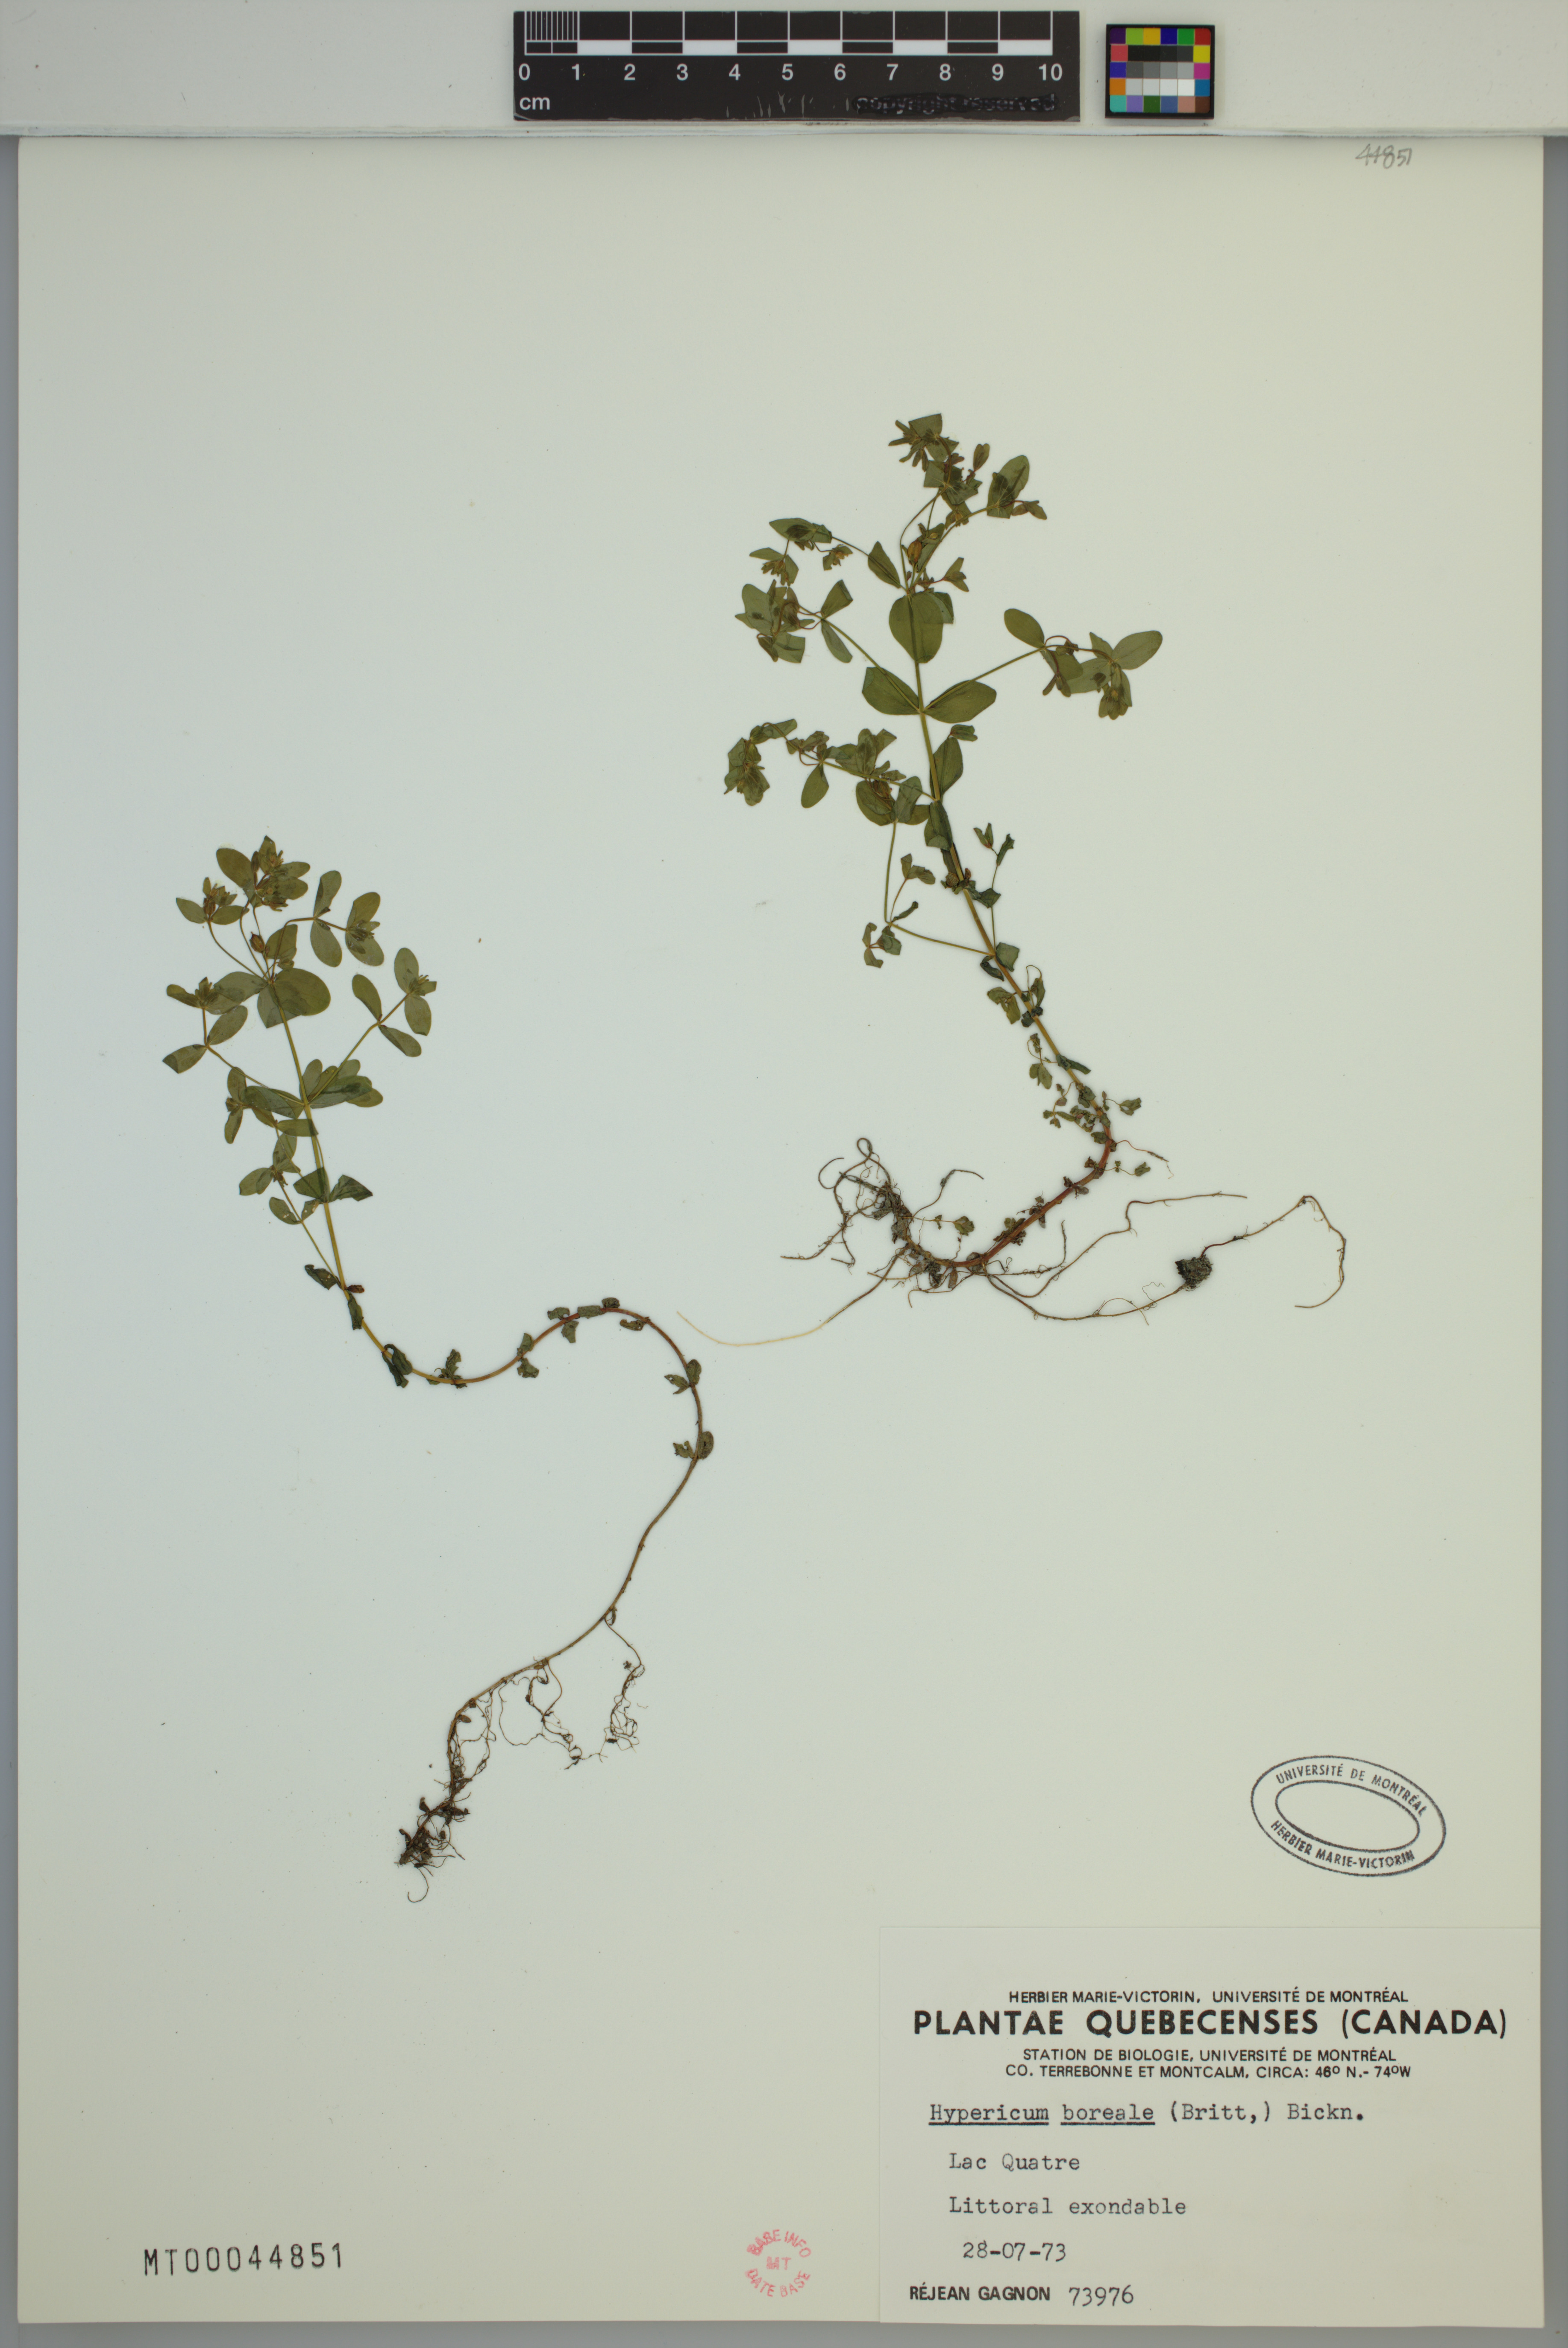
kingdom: Plantae
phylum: Tracheophyta
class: Magnoliopsida
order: Malpighiales
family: Hypericaceae
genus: Hypericum
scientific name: Hypericum boreale
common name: Northern bog st. john's-wort
